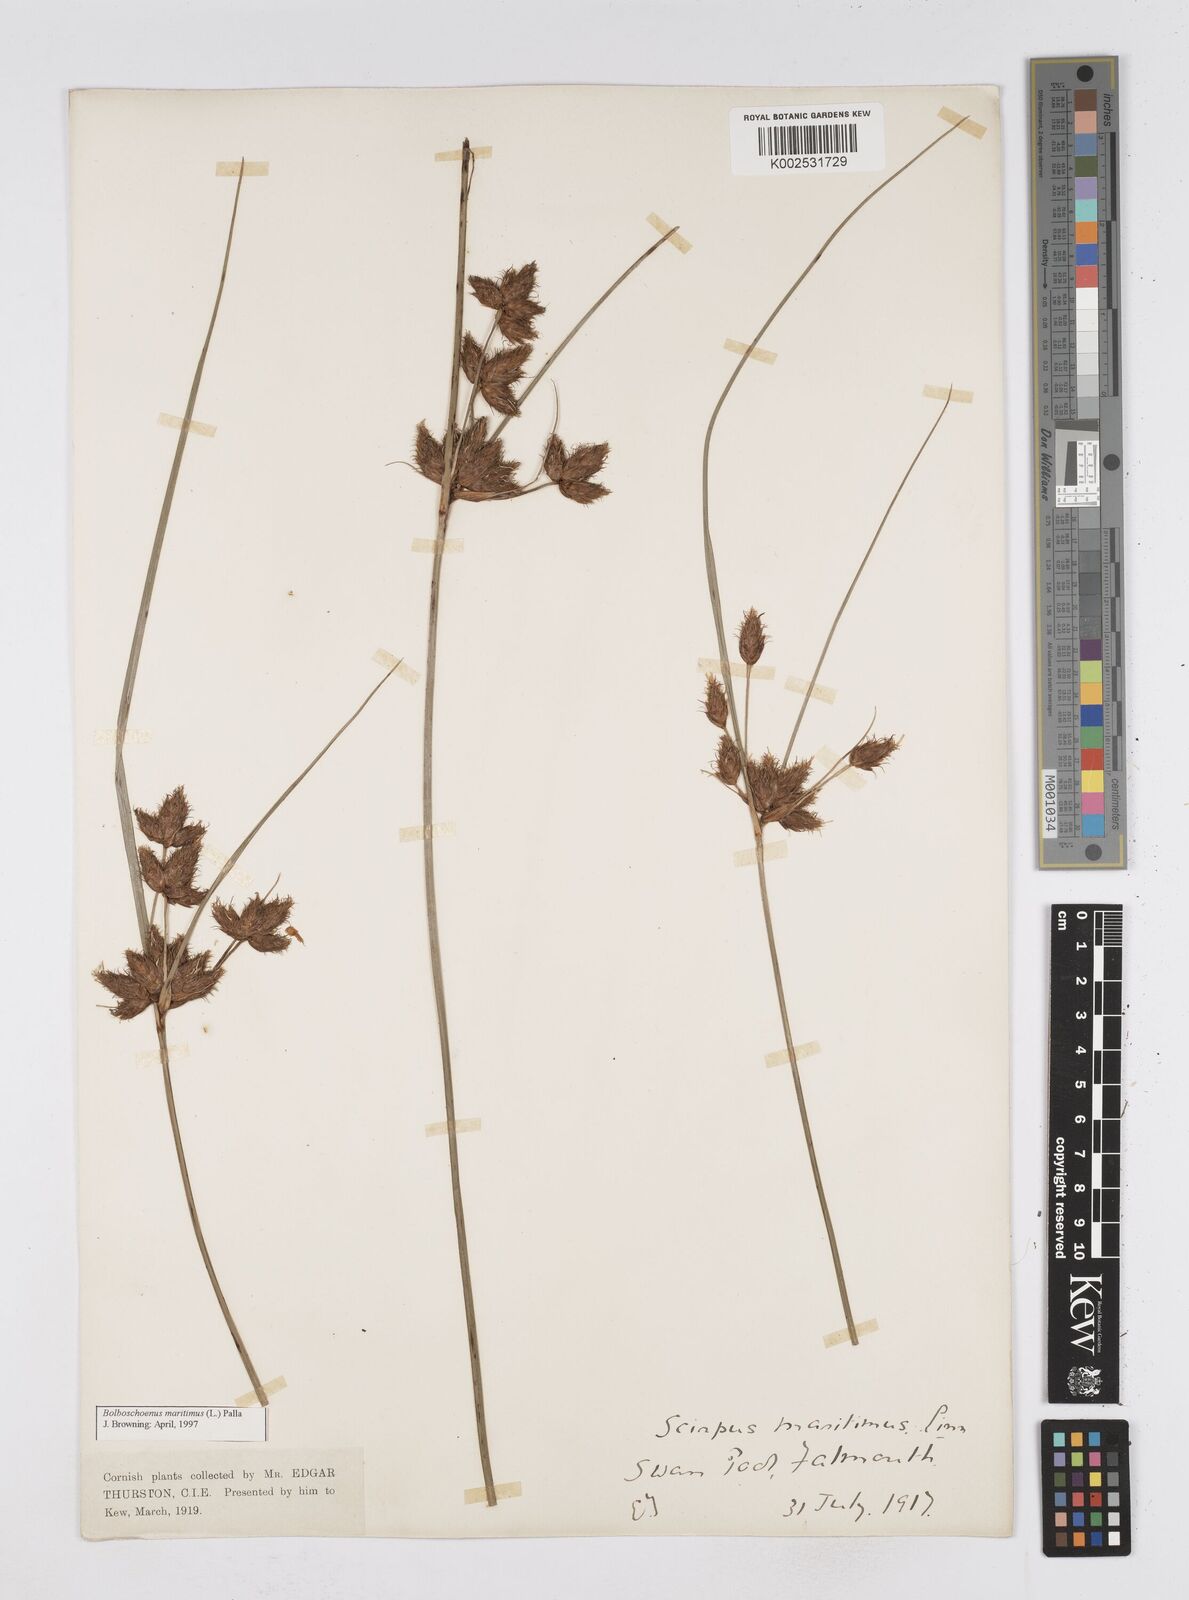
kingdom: Plantae
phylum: Tracheophyta
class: Liliopsida
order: Poales
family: Cyperaceae
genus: Bolboschoenus
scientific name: Bolboschoenus maritimus
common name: Sea club-rush
